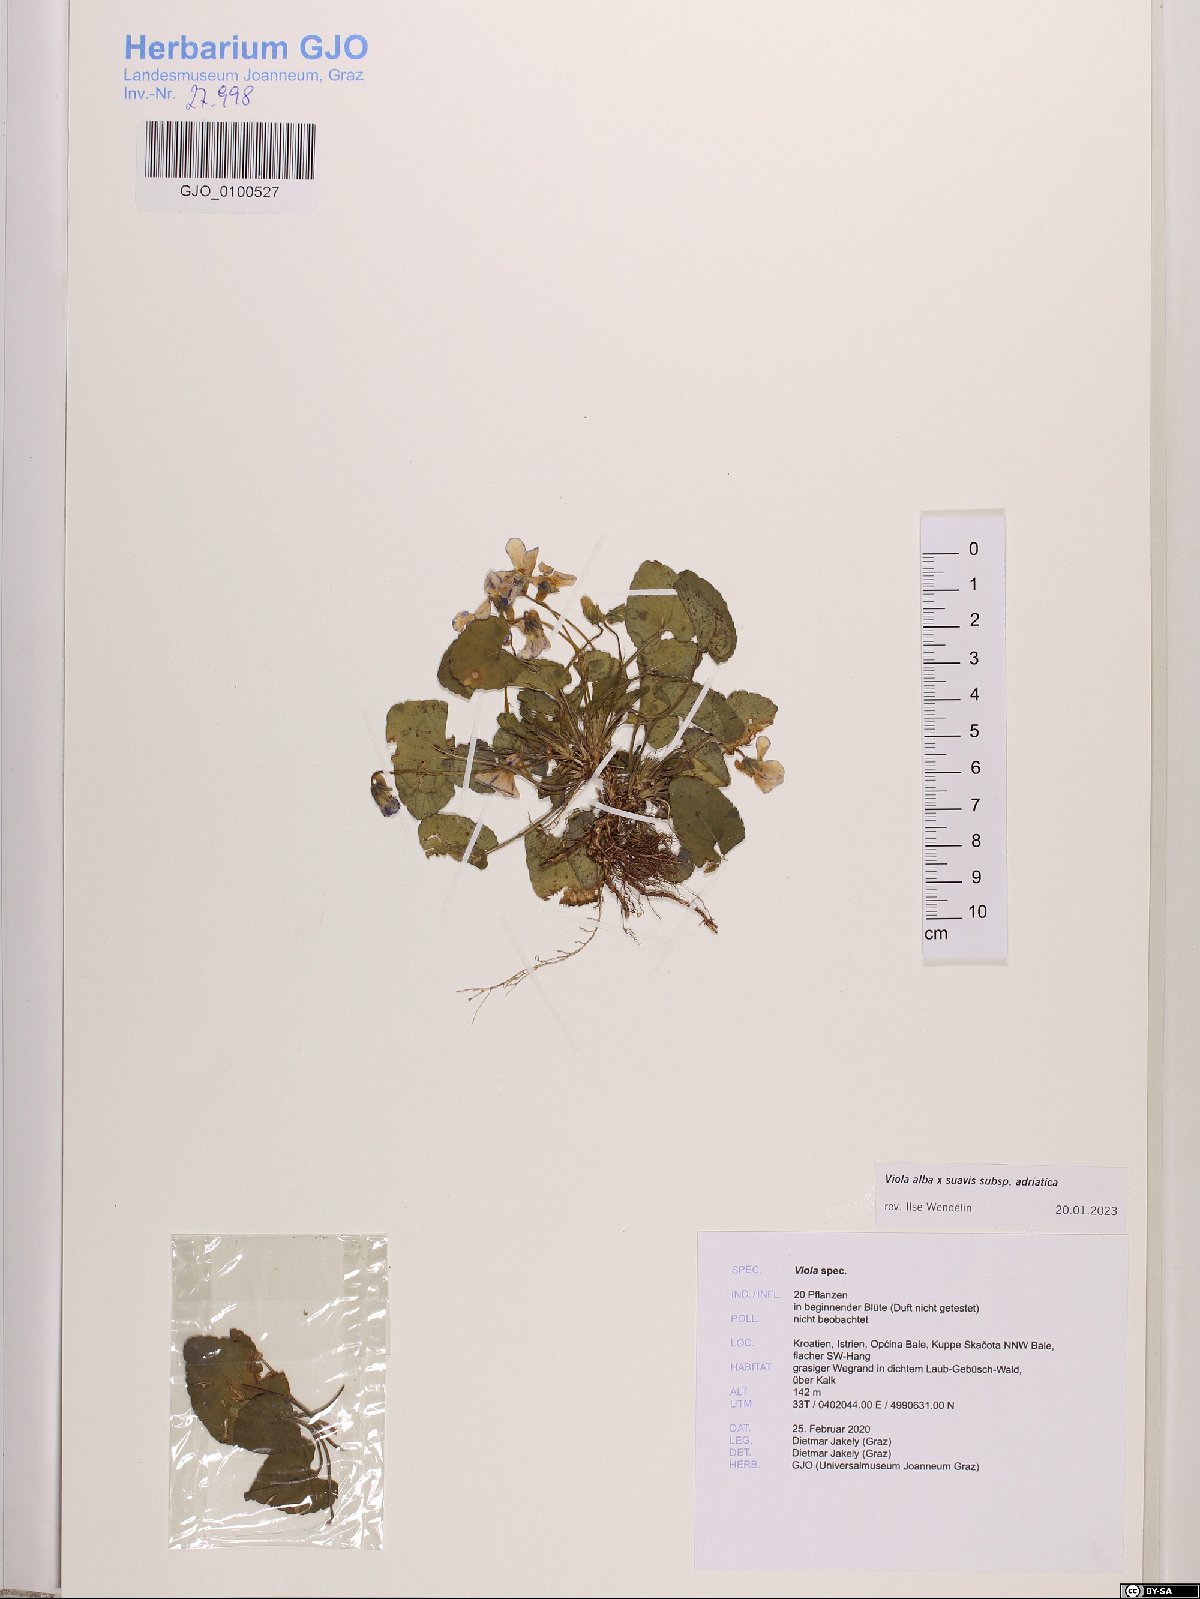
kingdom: Plantae
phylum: Tracheophyta
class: Magnoliopsida
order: Malpighiales
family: Violaceae
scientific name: Violaceae
